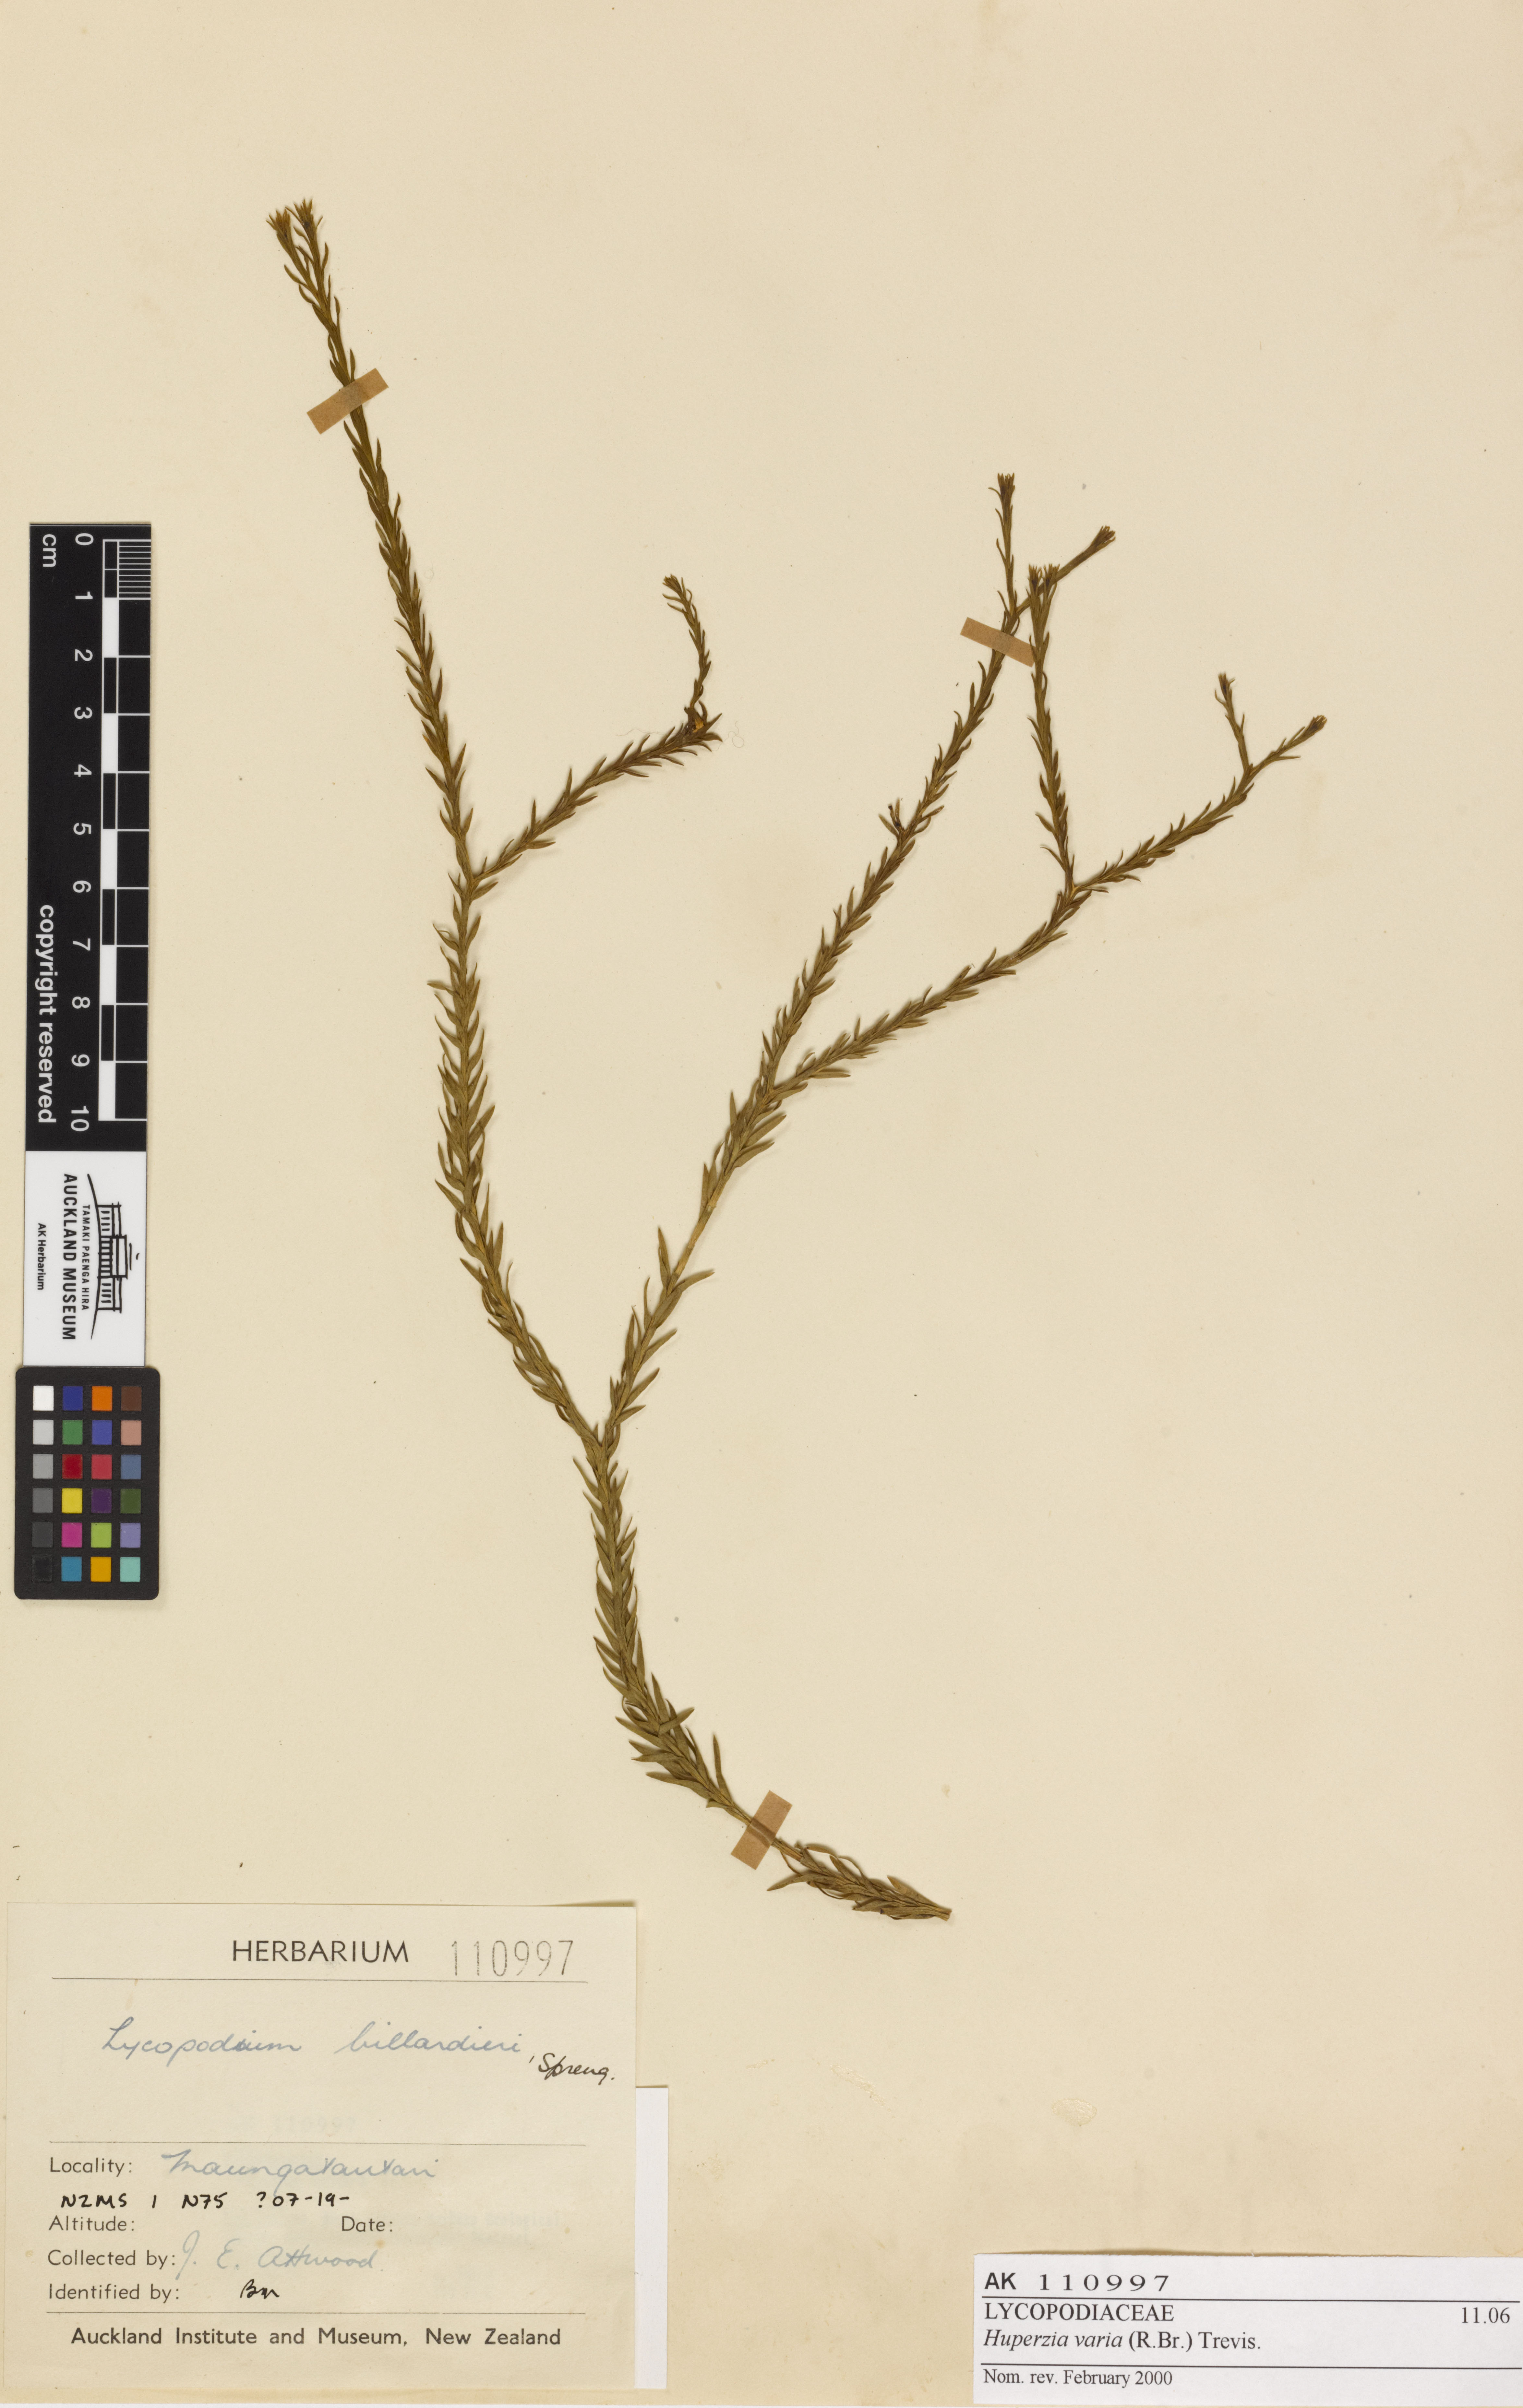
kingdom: Plantae
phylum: Tracheophyta
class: Lycopodiopsida
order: Lycopodiales
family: Lycopodiaceae
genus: Phlegmariurus
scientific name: Phlegmariurus
